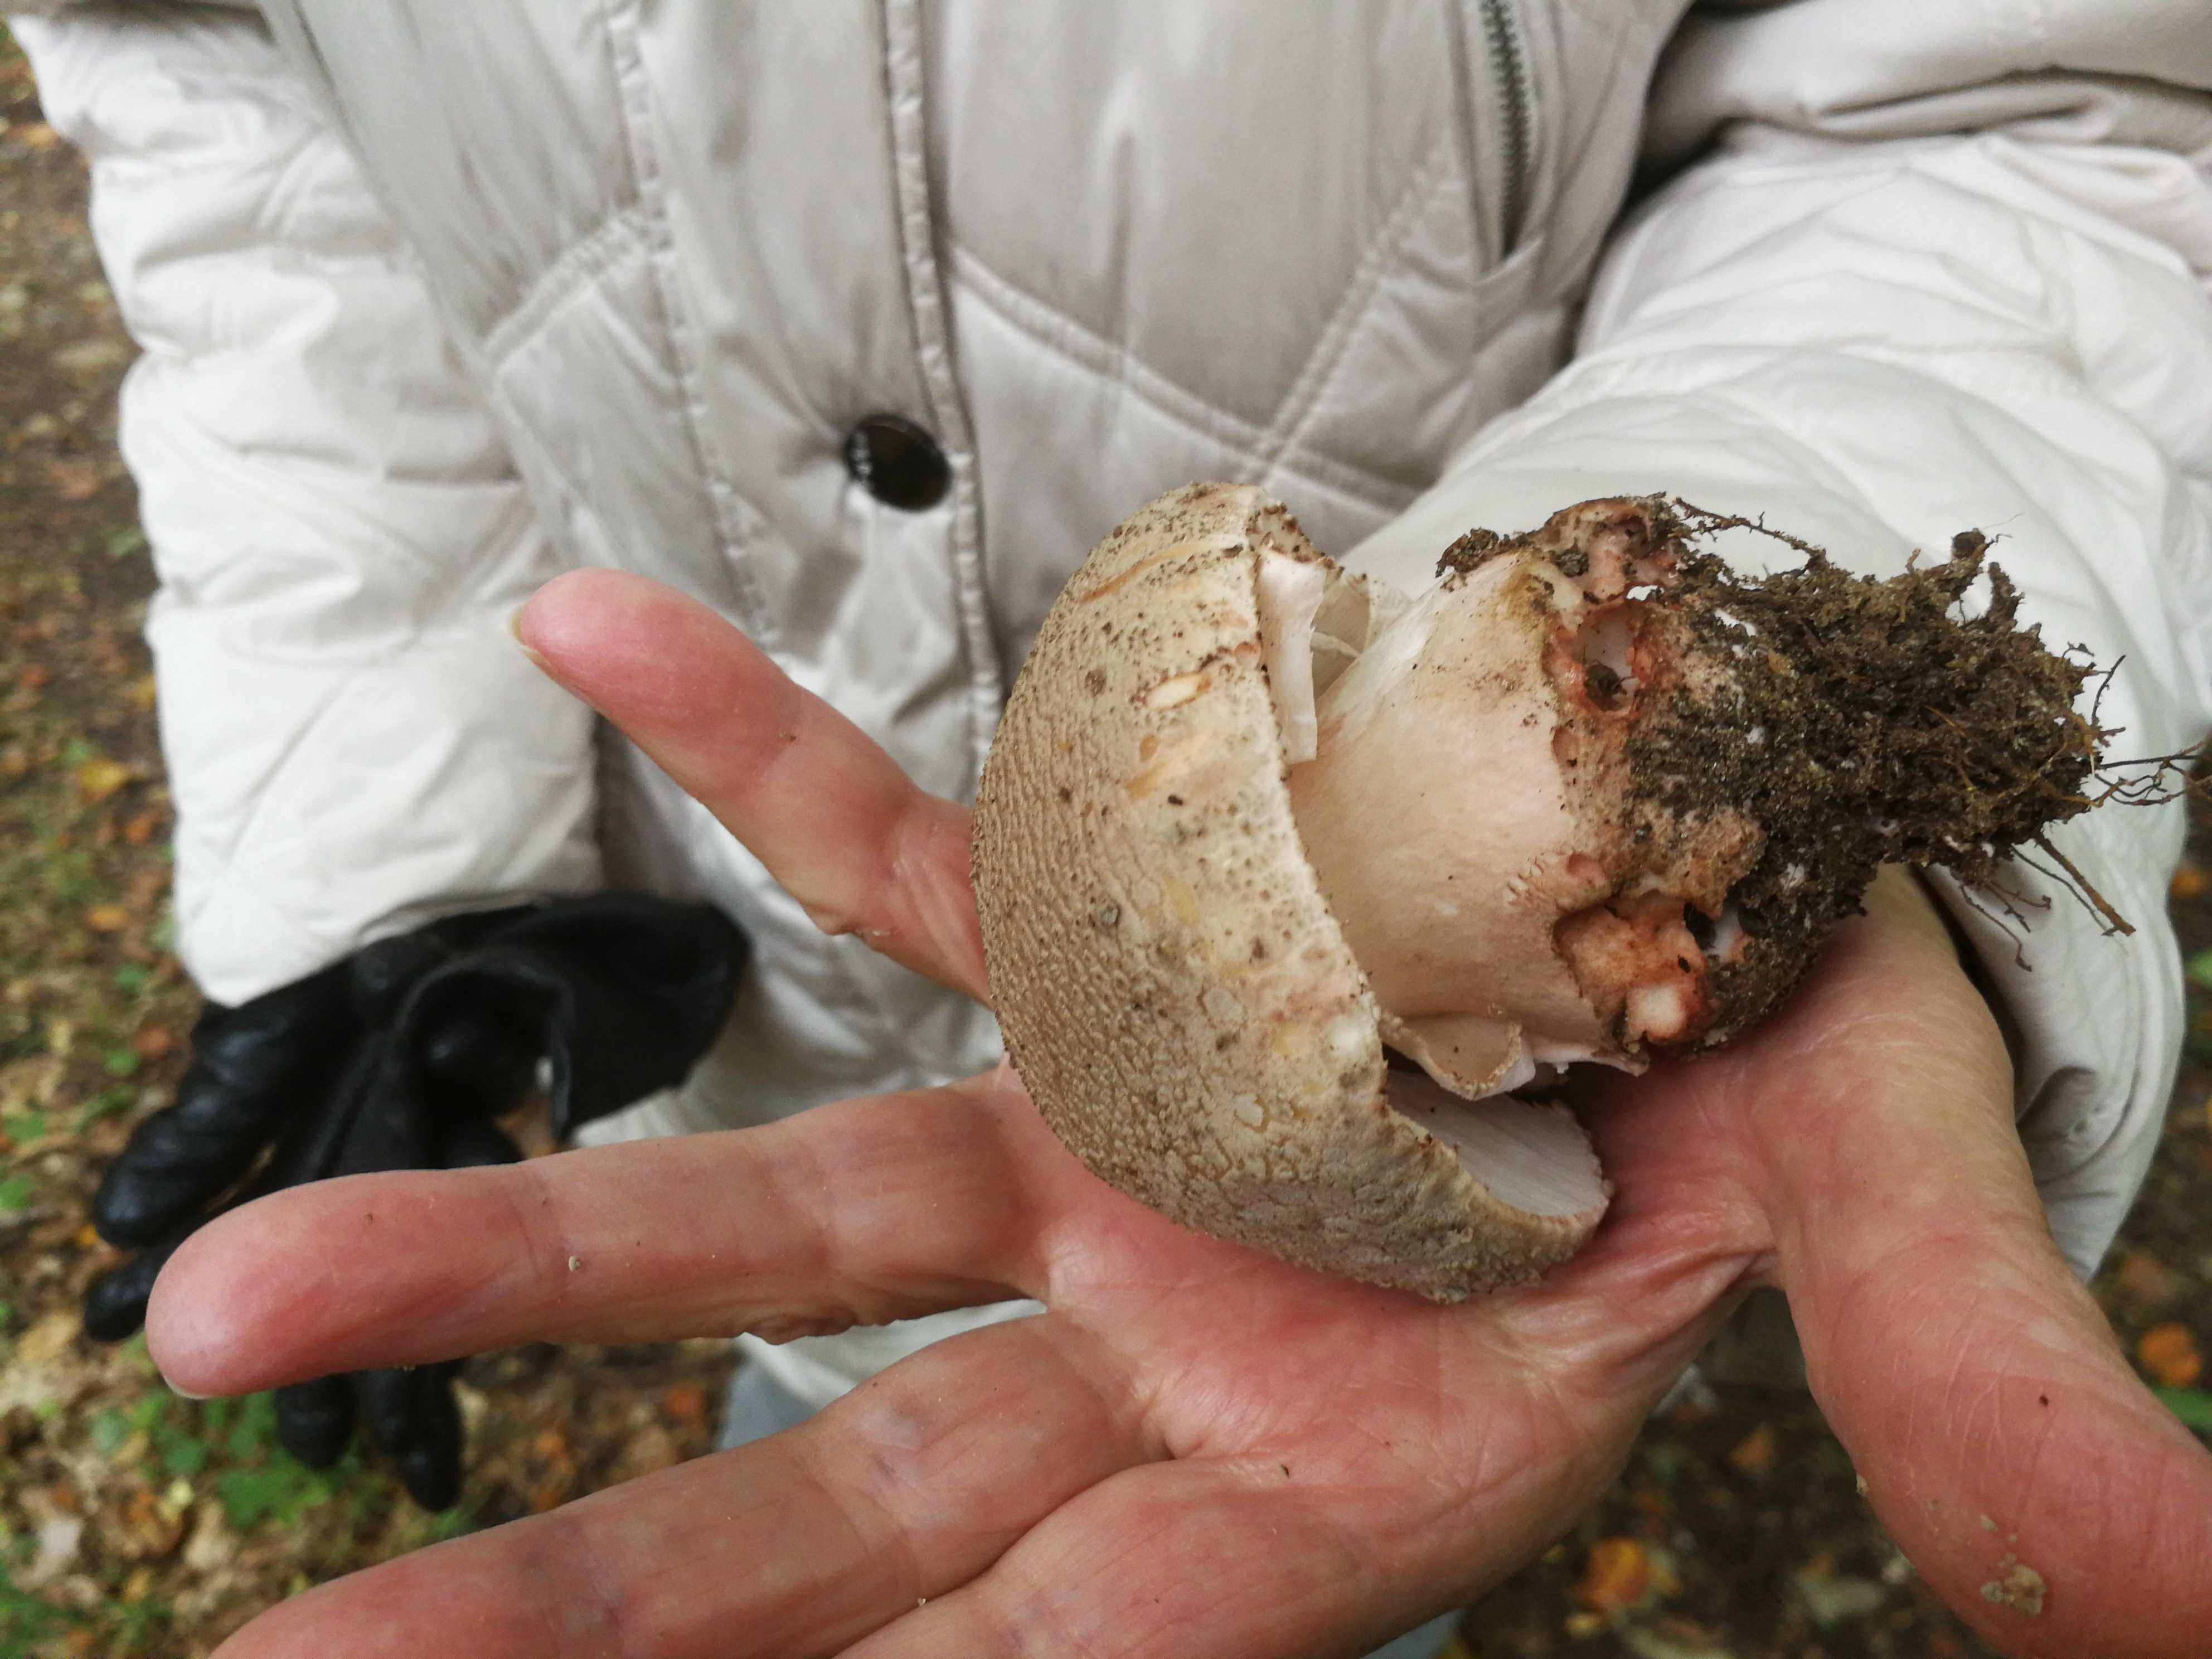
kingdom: Fungi
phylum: Basidiomycota
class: Agaricomycetes
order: Agaricales
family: Amanitaceae
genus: Amanita
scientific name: Amanita rubescens
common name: rødmende fluesvamp
